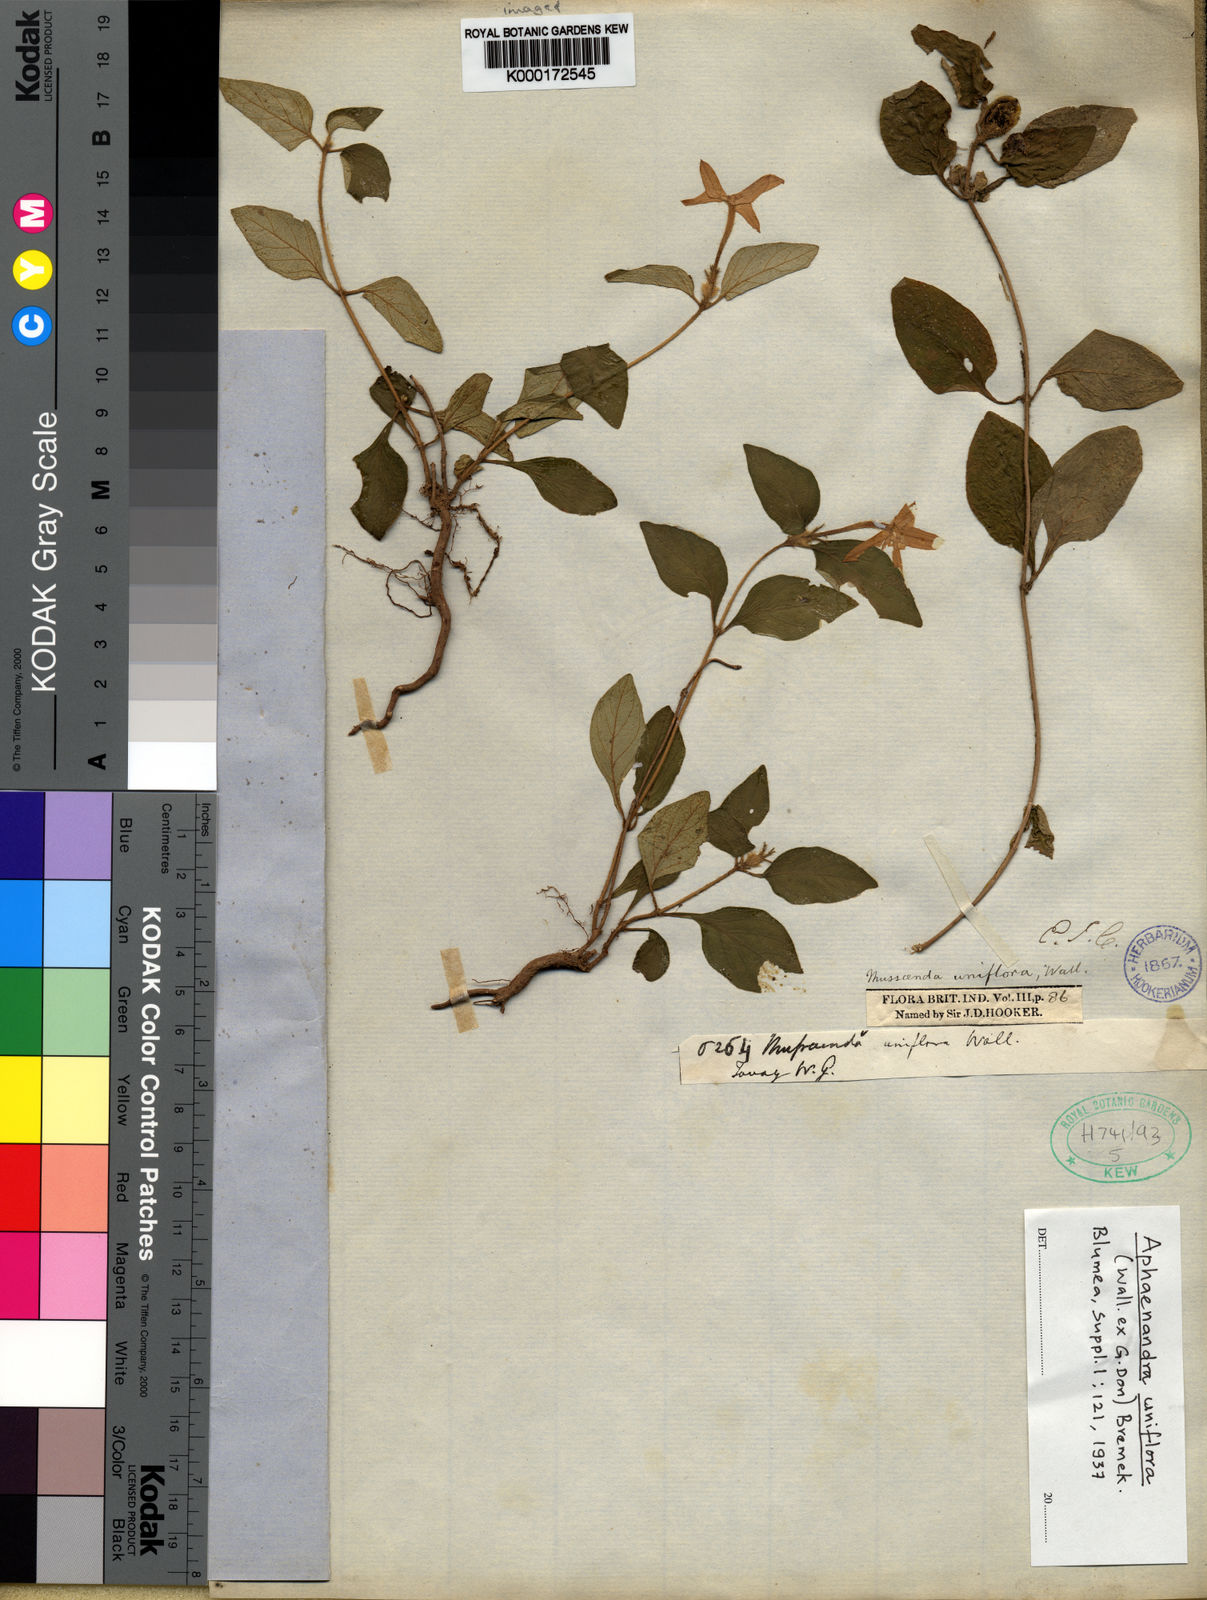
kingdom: Plantae
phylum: Tracheophyta
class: Magnoliopsida
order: Gentianales
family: Rubiaceae
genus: Mussaenda
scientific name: Mussaenda
